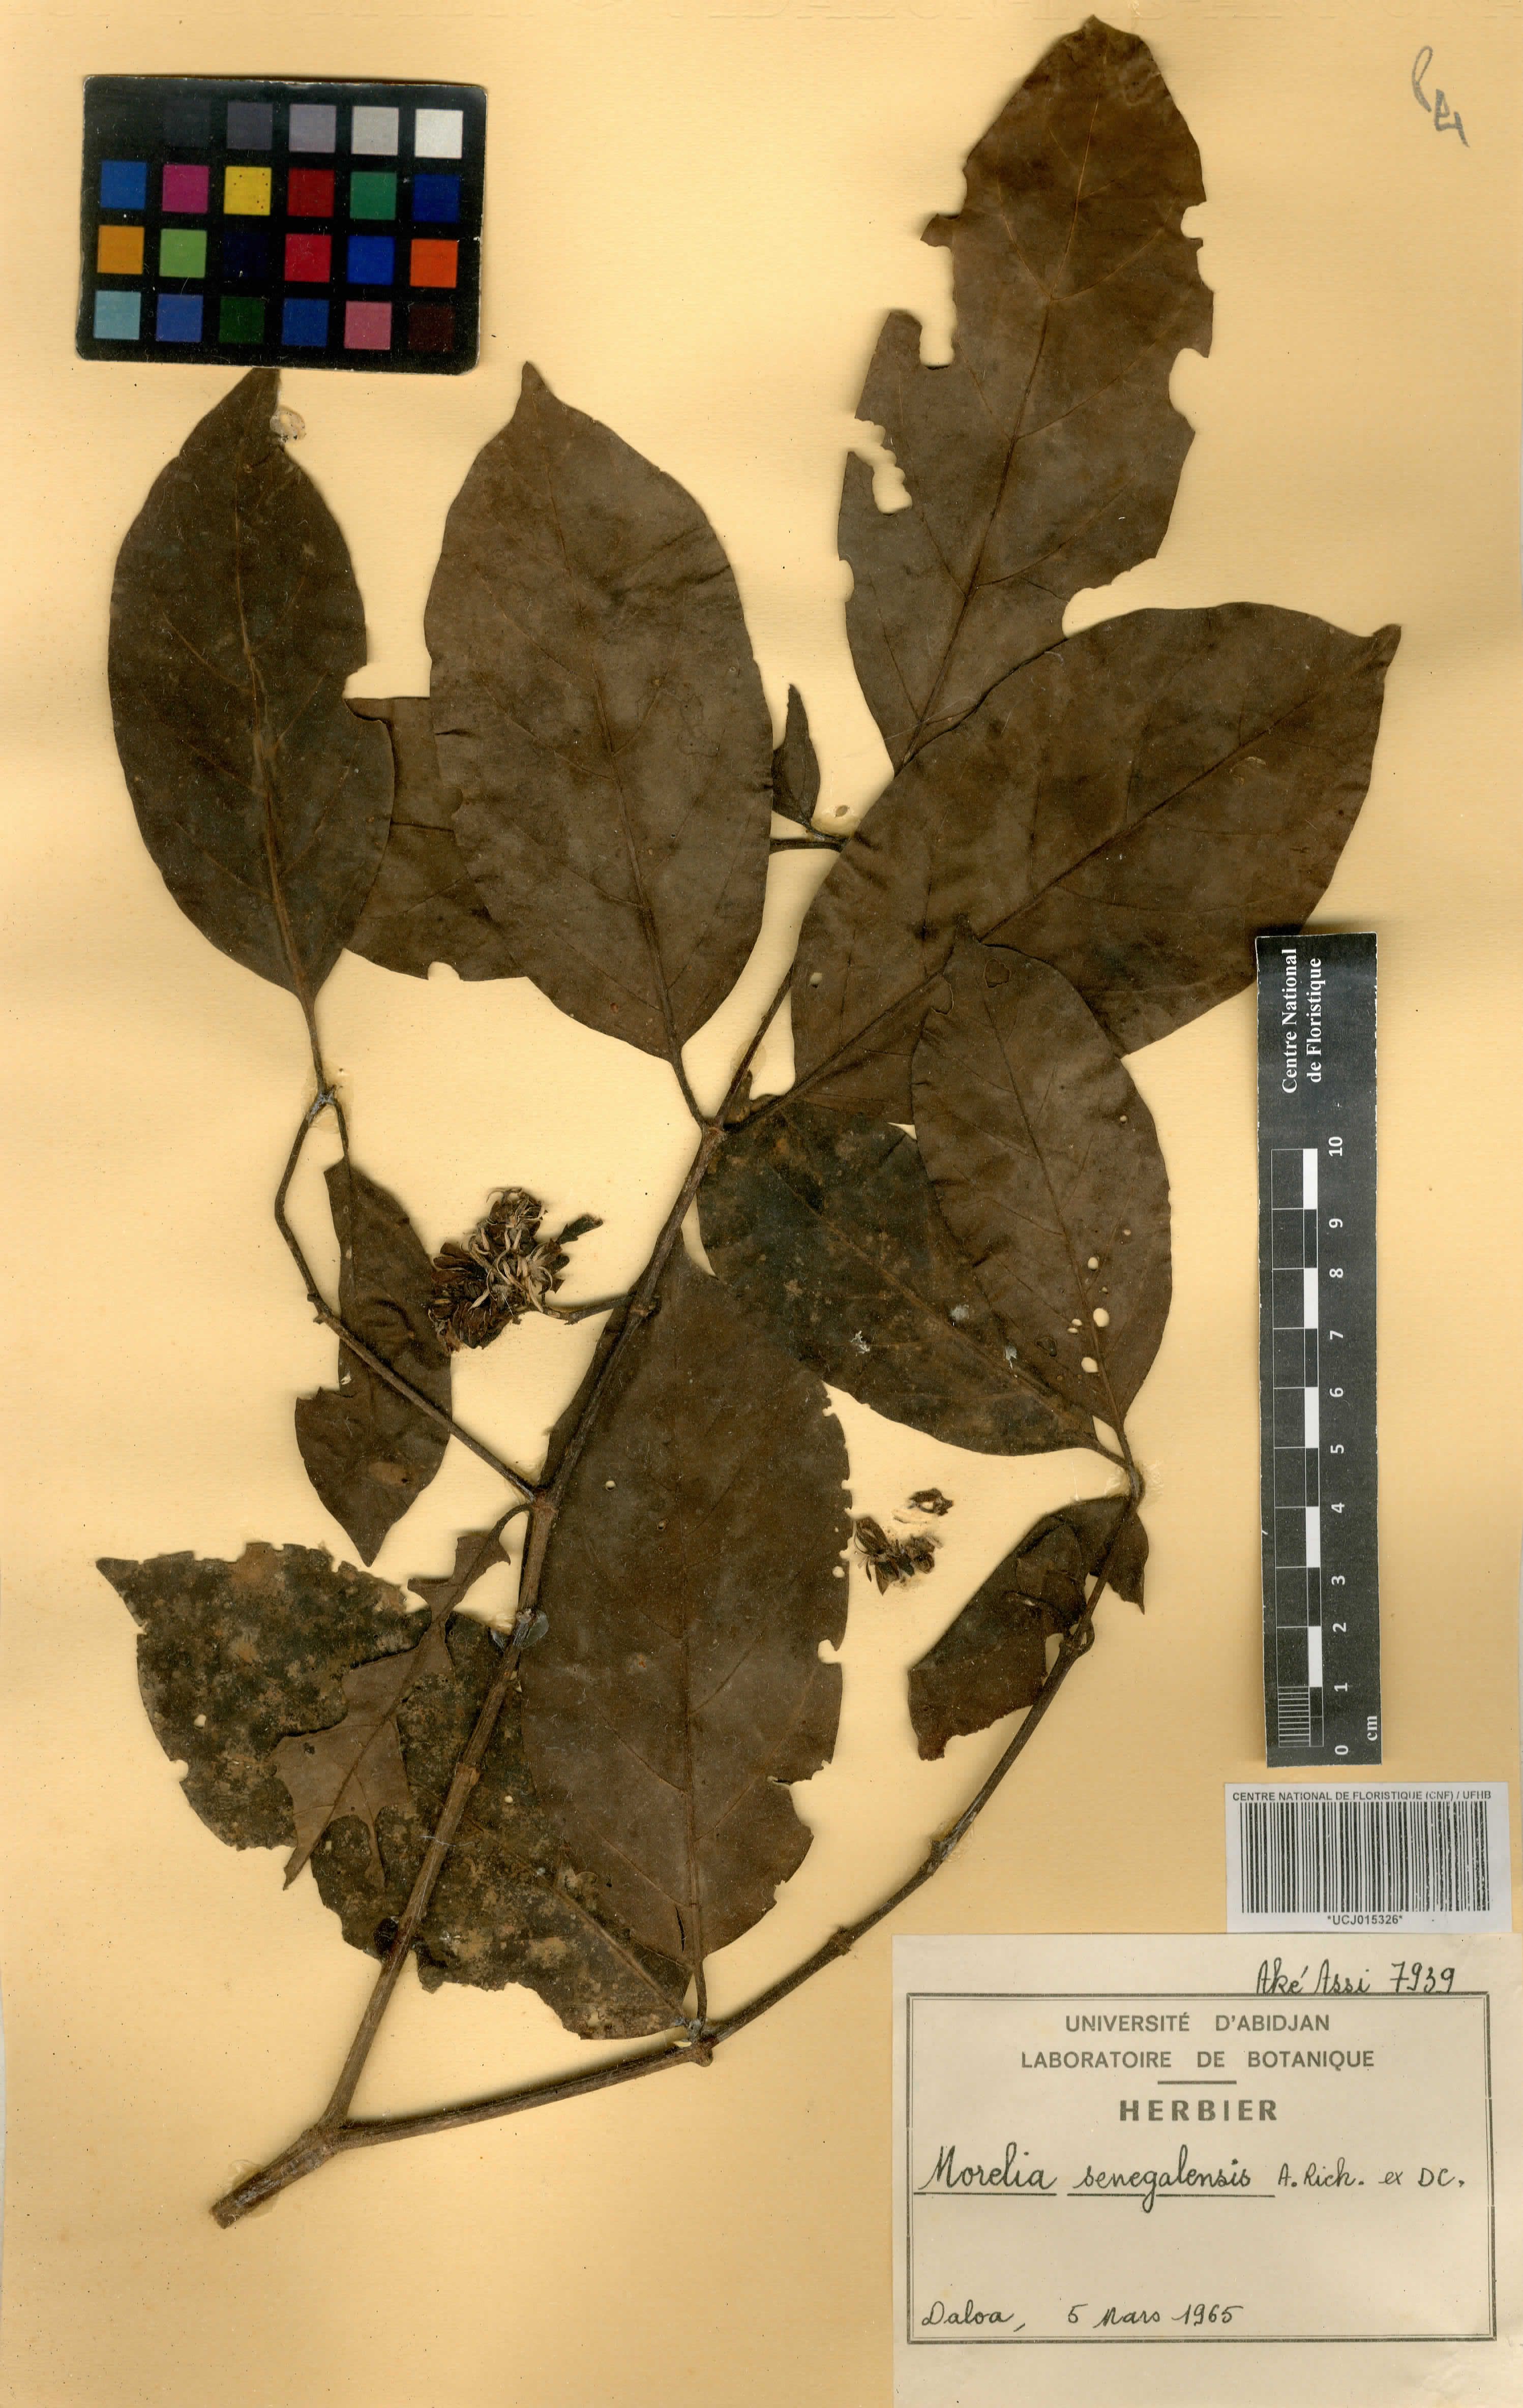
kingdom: Plantae
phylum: Tracheophyta
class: Magnoliopsida
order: Gentianales
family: Rubiaceae
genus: Morelia
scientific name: Morelia senegalensis
